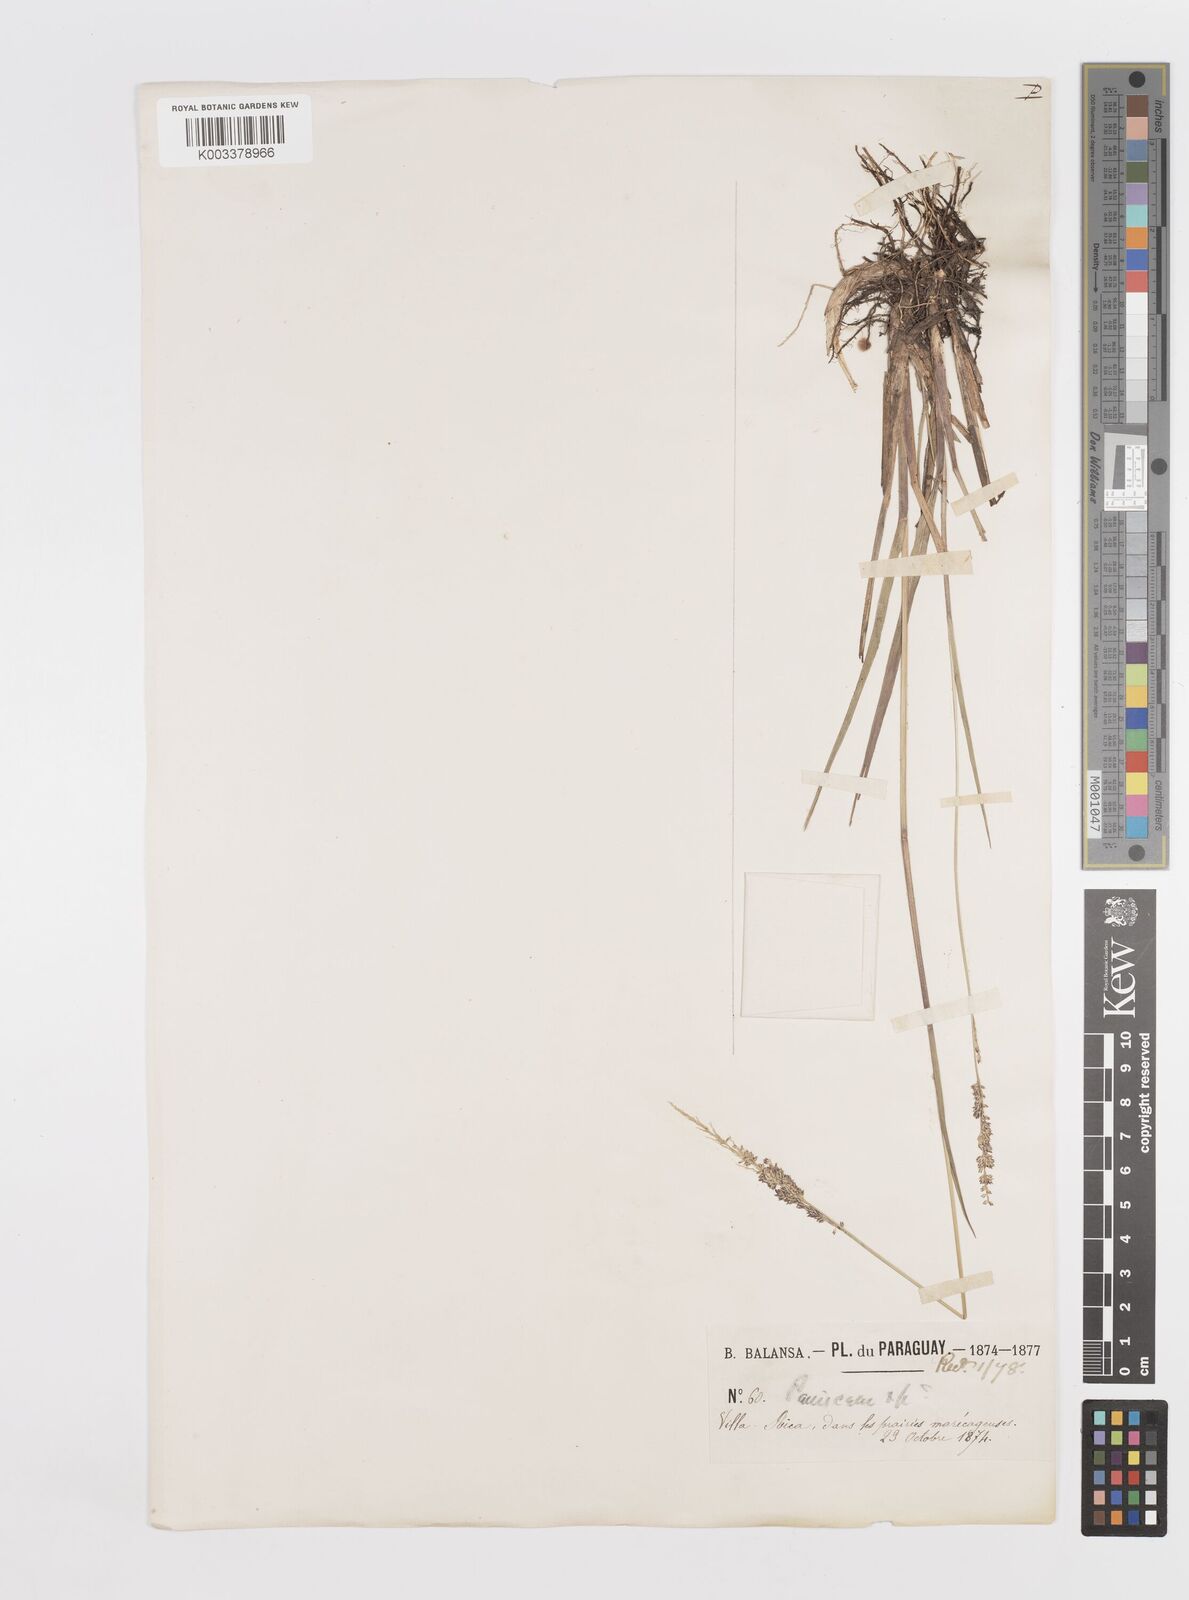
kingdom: Plantae
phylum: Tracheophyta
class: Liliopsida
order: Poales
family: Poaceae
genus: Steinchisma
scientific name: Steinchisma decipiens
